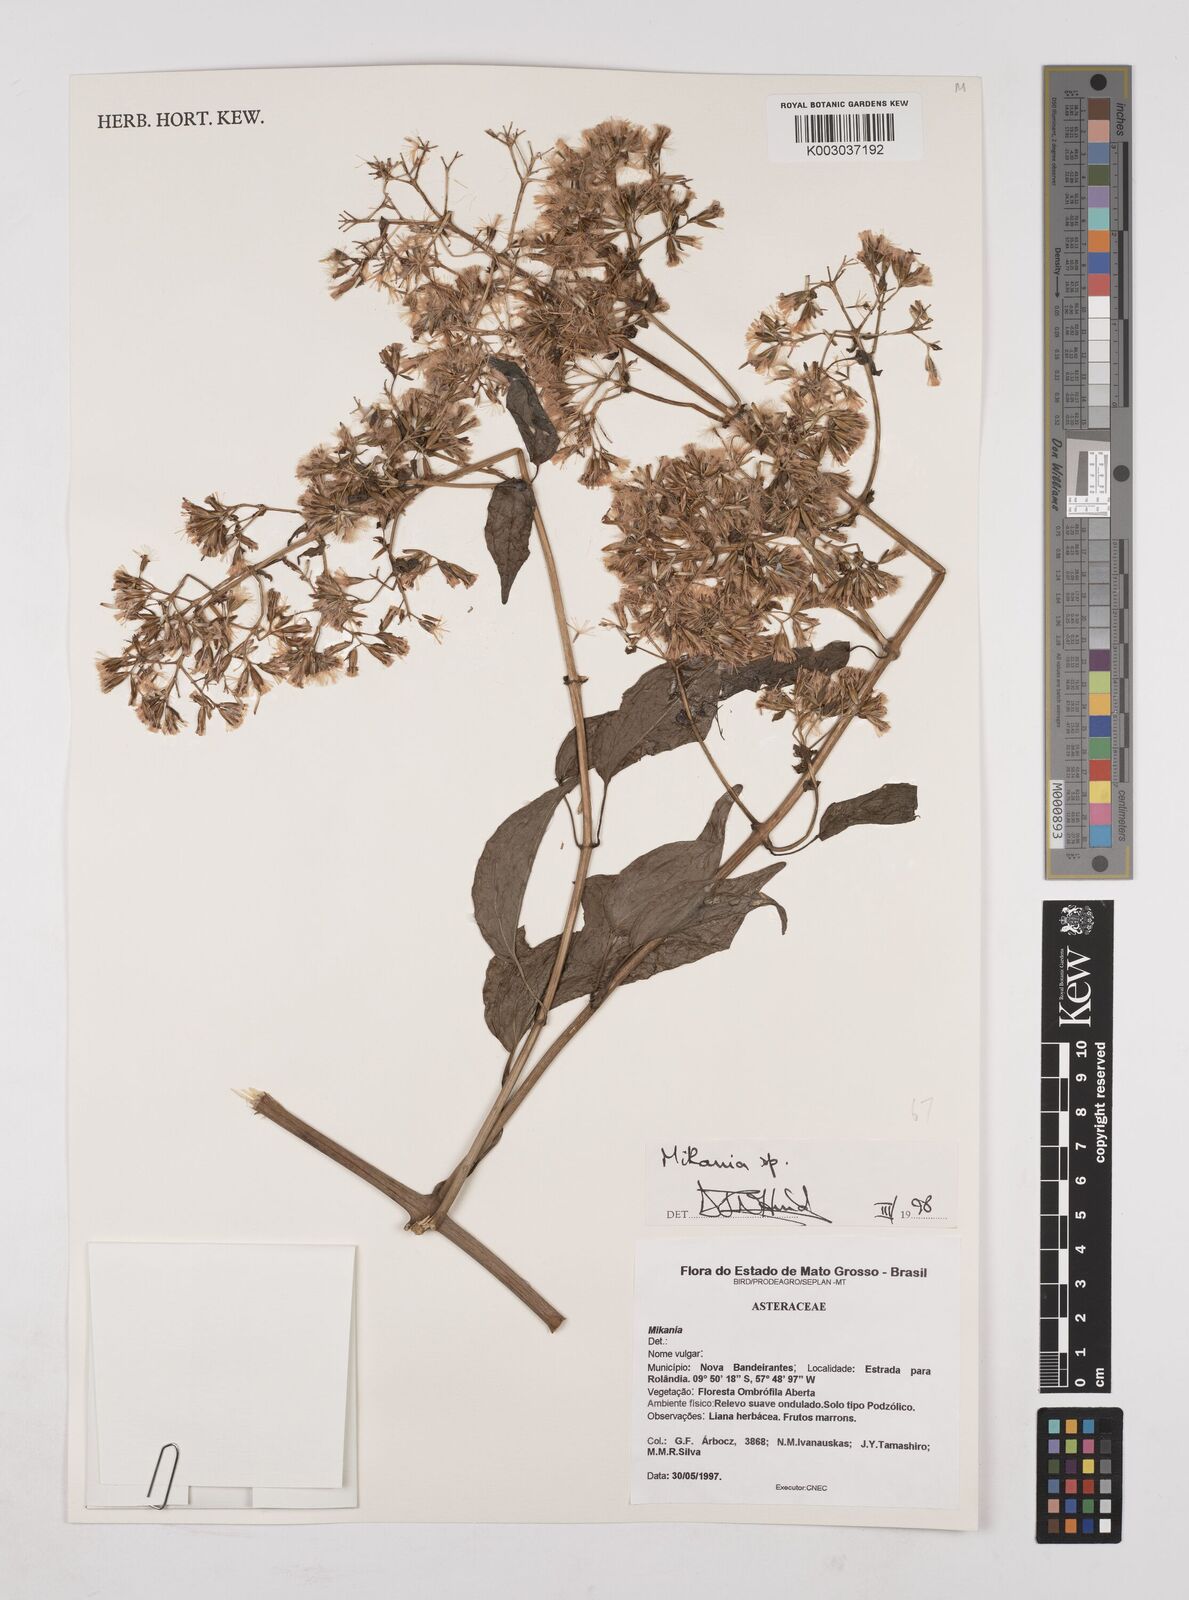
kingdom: Plantae
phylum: Tracheophyta
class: Magnoliopsida
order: Asterales
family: Asteraceae
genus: Mikania
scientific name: Mikania
